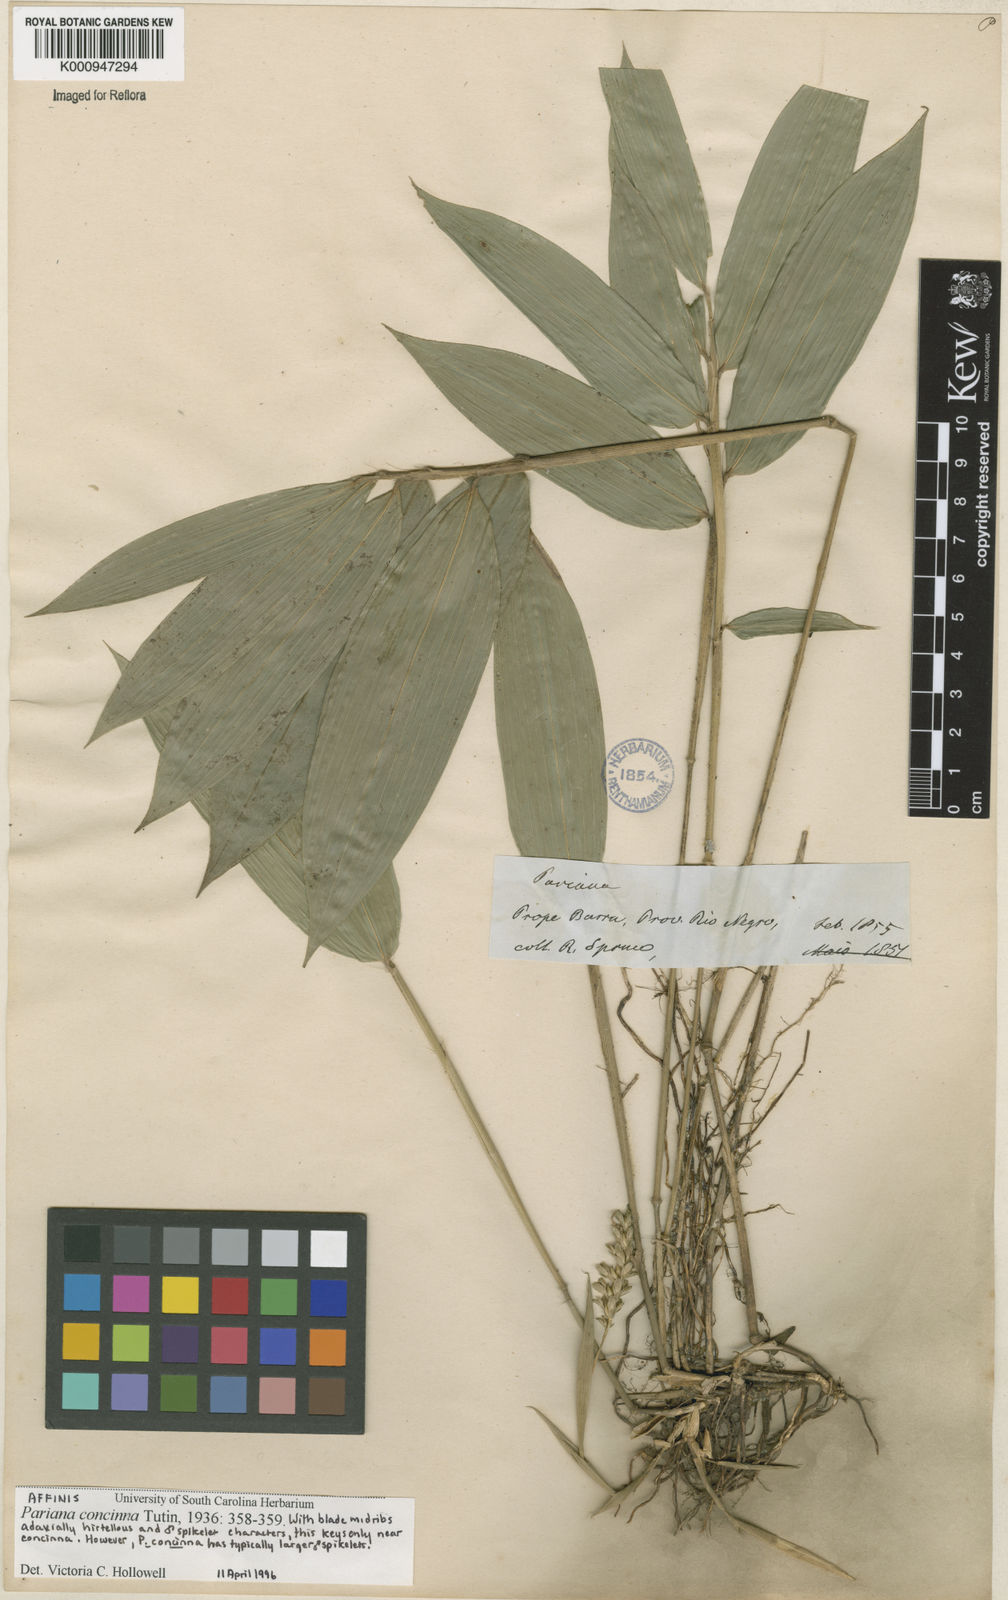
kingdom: Plantae
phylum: Tracheophyta
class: Liliopsida
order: Poales
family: Poaceae
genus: Pariana
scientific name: Pariana concinna
